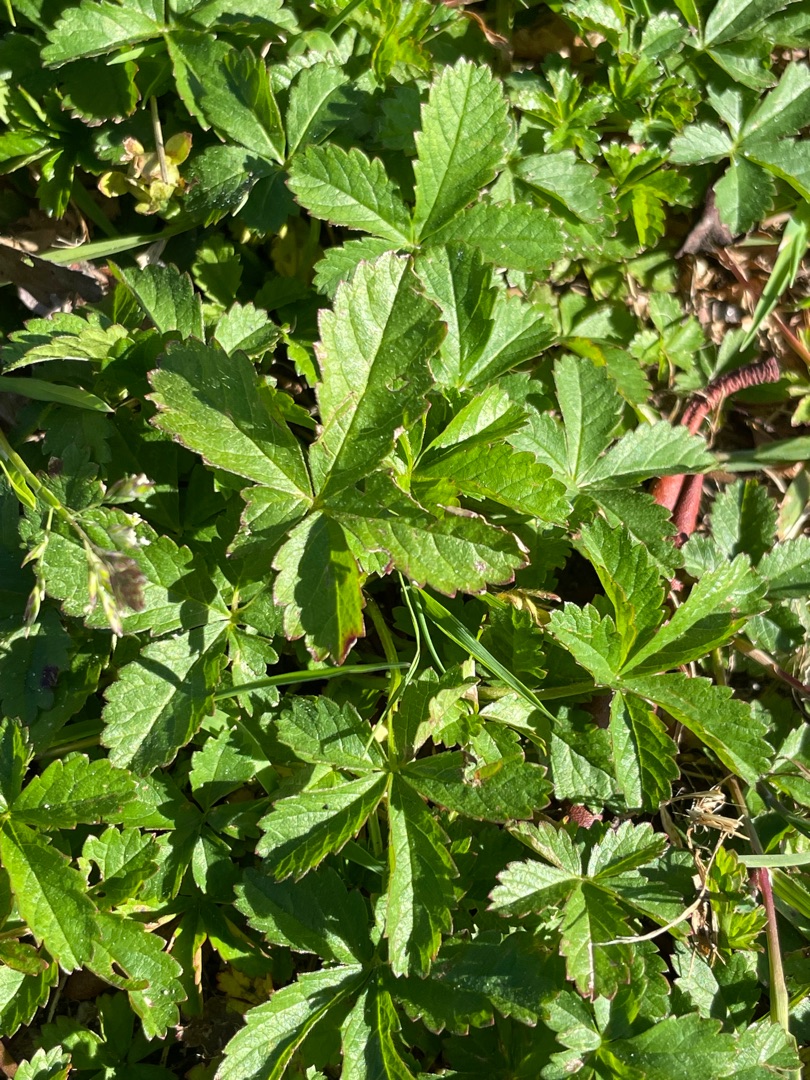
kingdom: Plantae
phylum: Tracheophyta
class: Magnoliopsida
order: Rosales
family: Rosaceae
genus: Potentilla
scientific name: Potentilla reptans
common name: Krybende potentil
